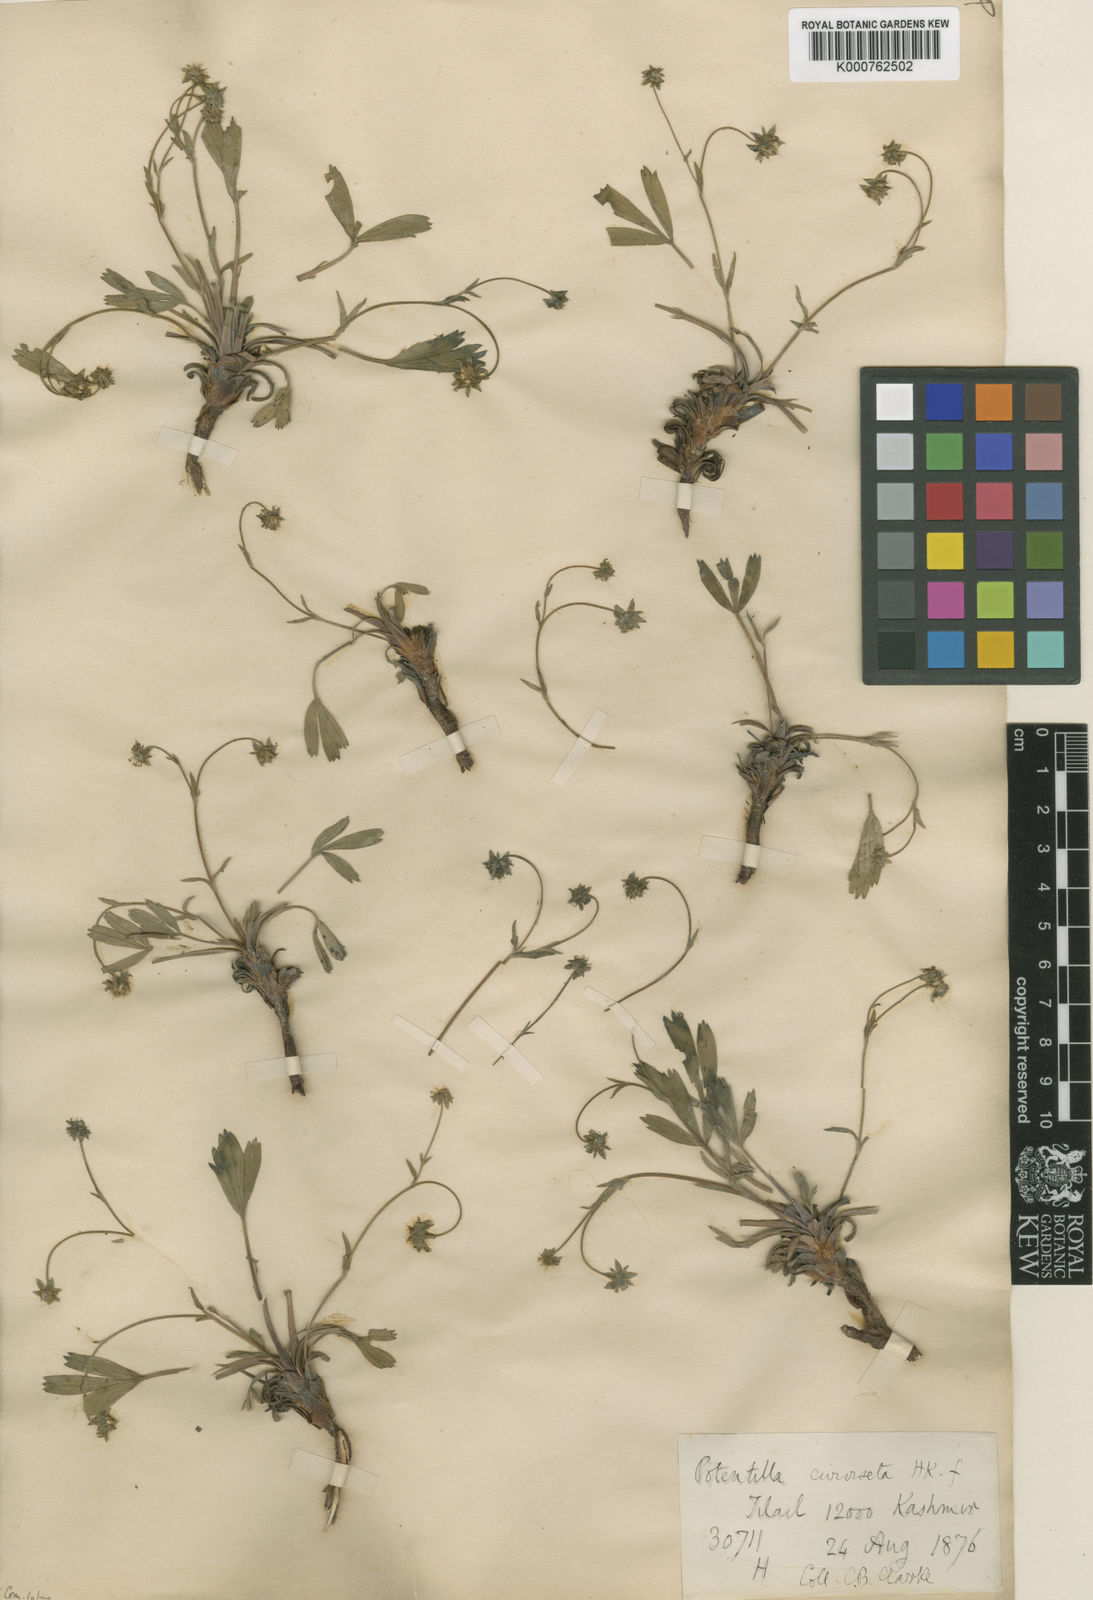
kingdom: Plantae
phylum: Tracheophyta
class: Magnoliopsida
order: Rosales
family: Rosaceae
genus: Potentilla
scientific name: Potentilla curviseta
